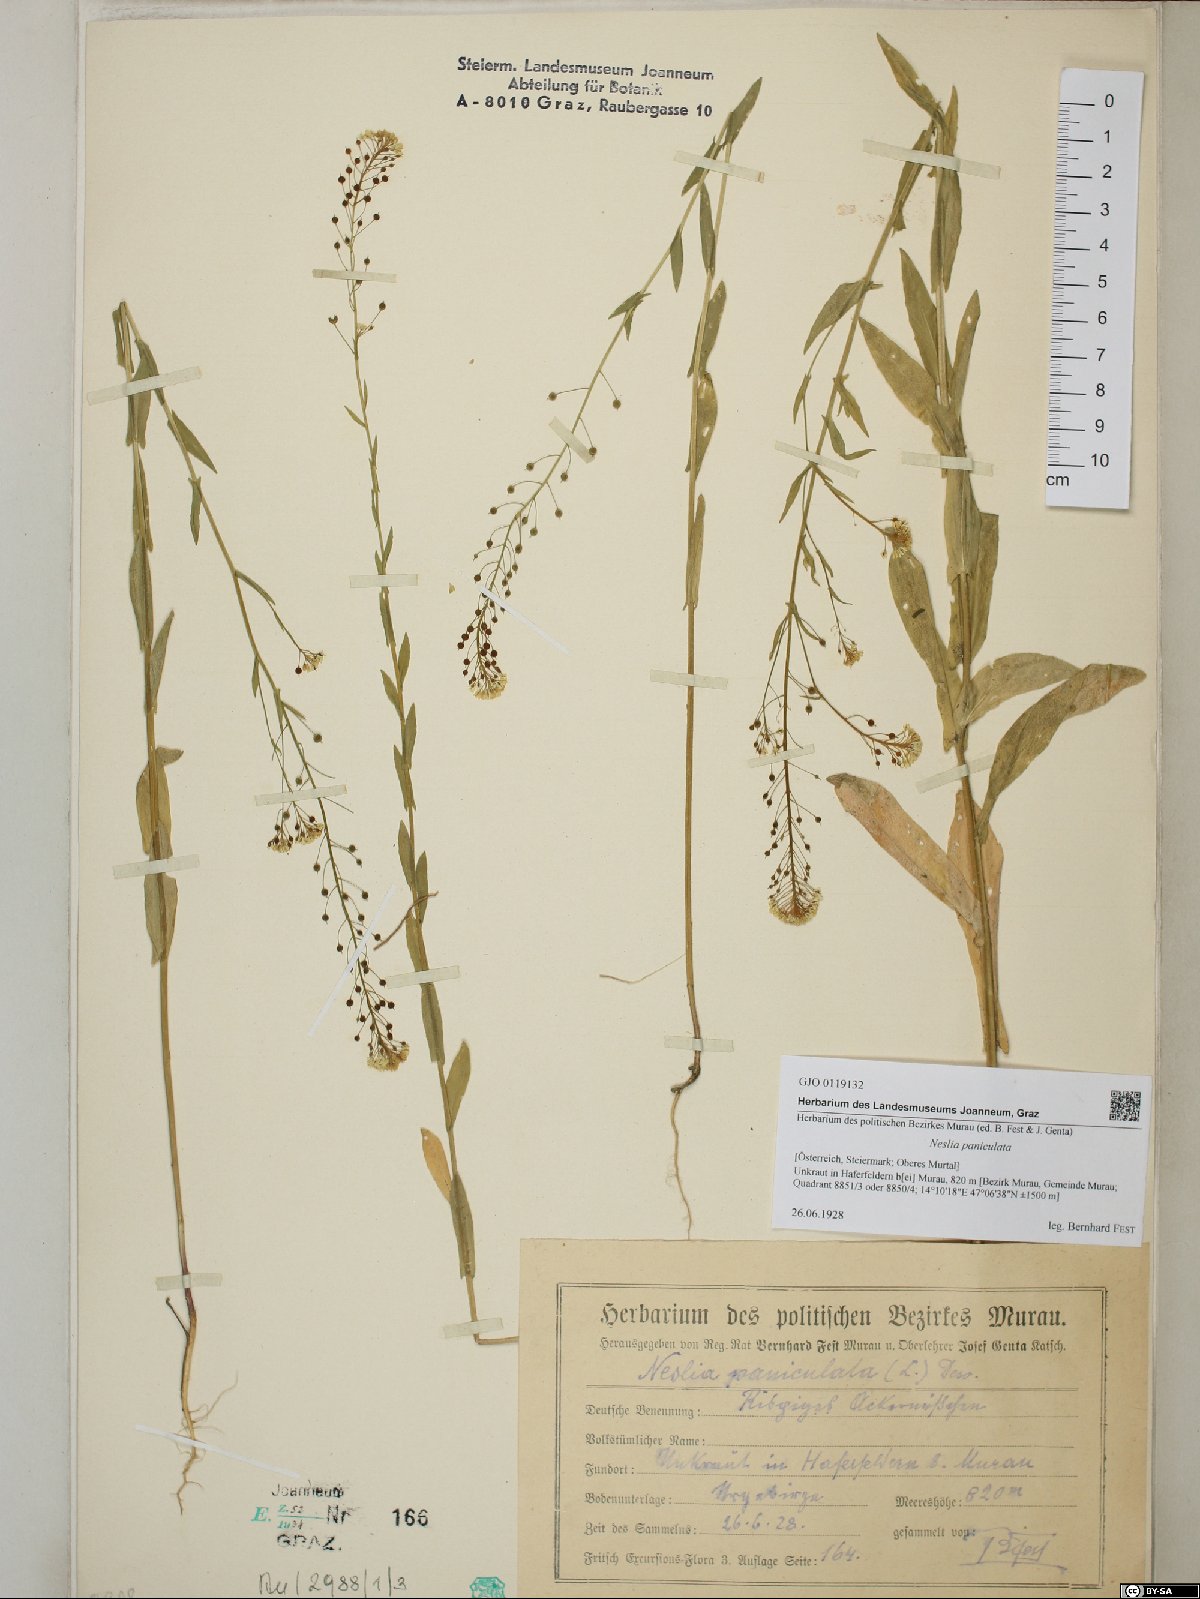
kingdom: Plantae
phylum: Tracheophyta
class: Magnoliopsida
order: Brassicales
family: Brassicaceae
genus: Neslia
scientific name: Neslia paniculata
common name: Ball mustard
